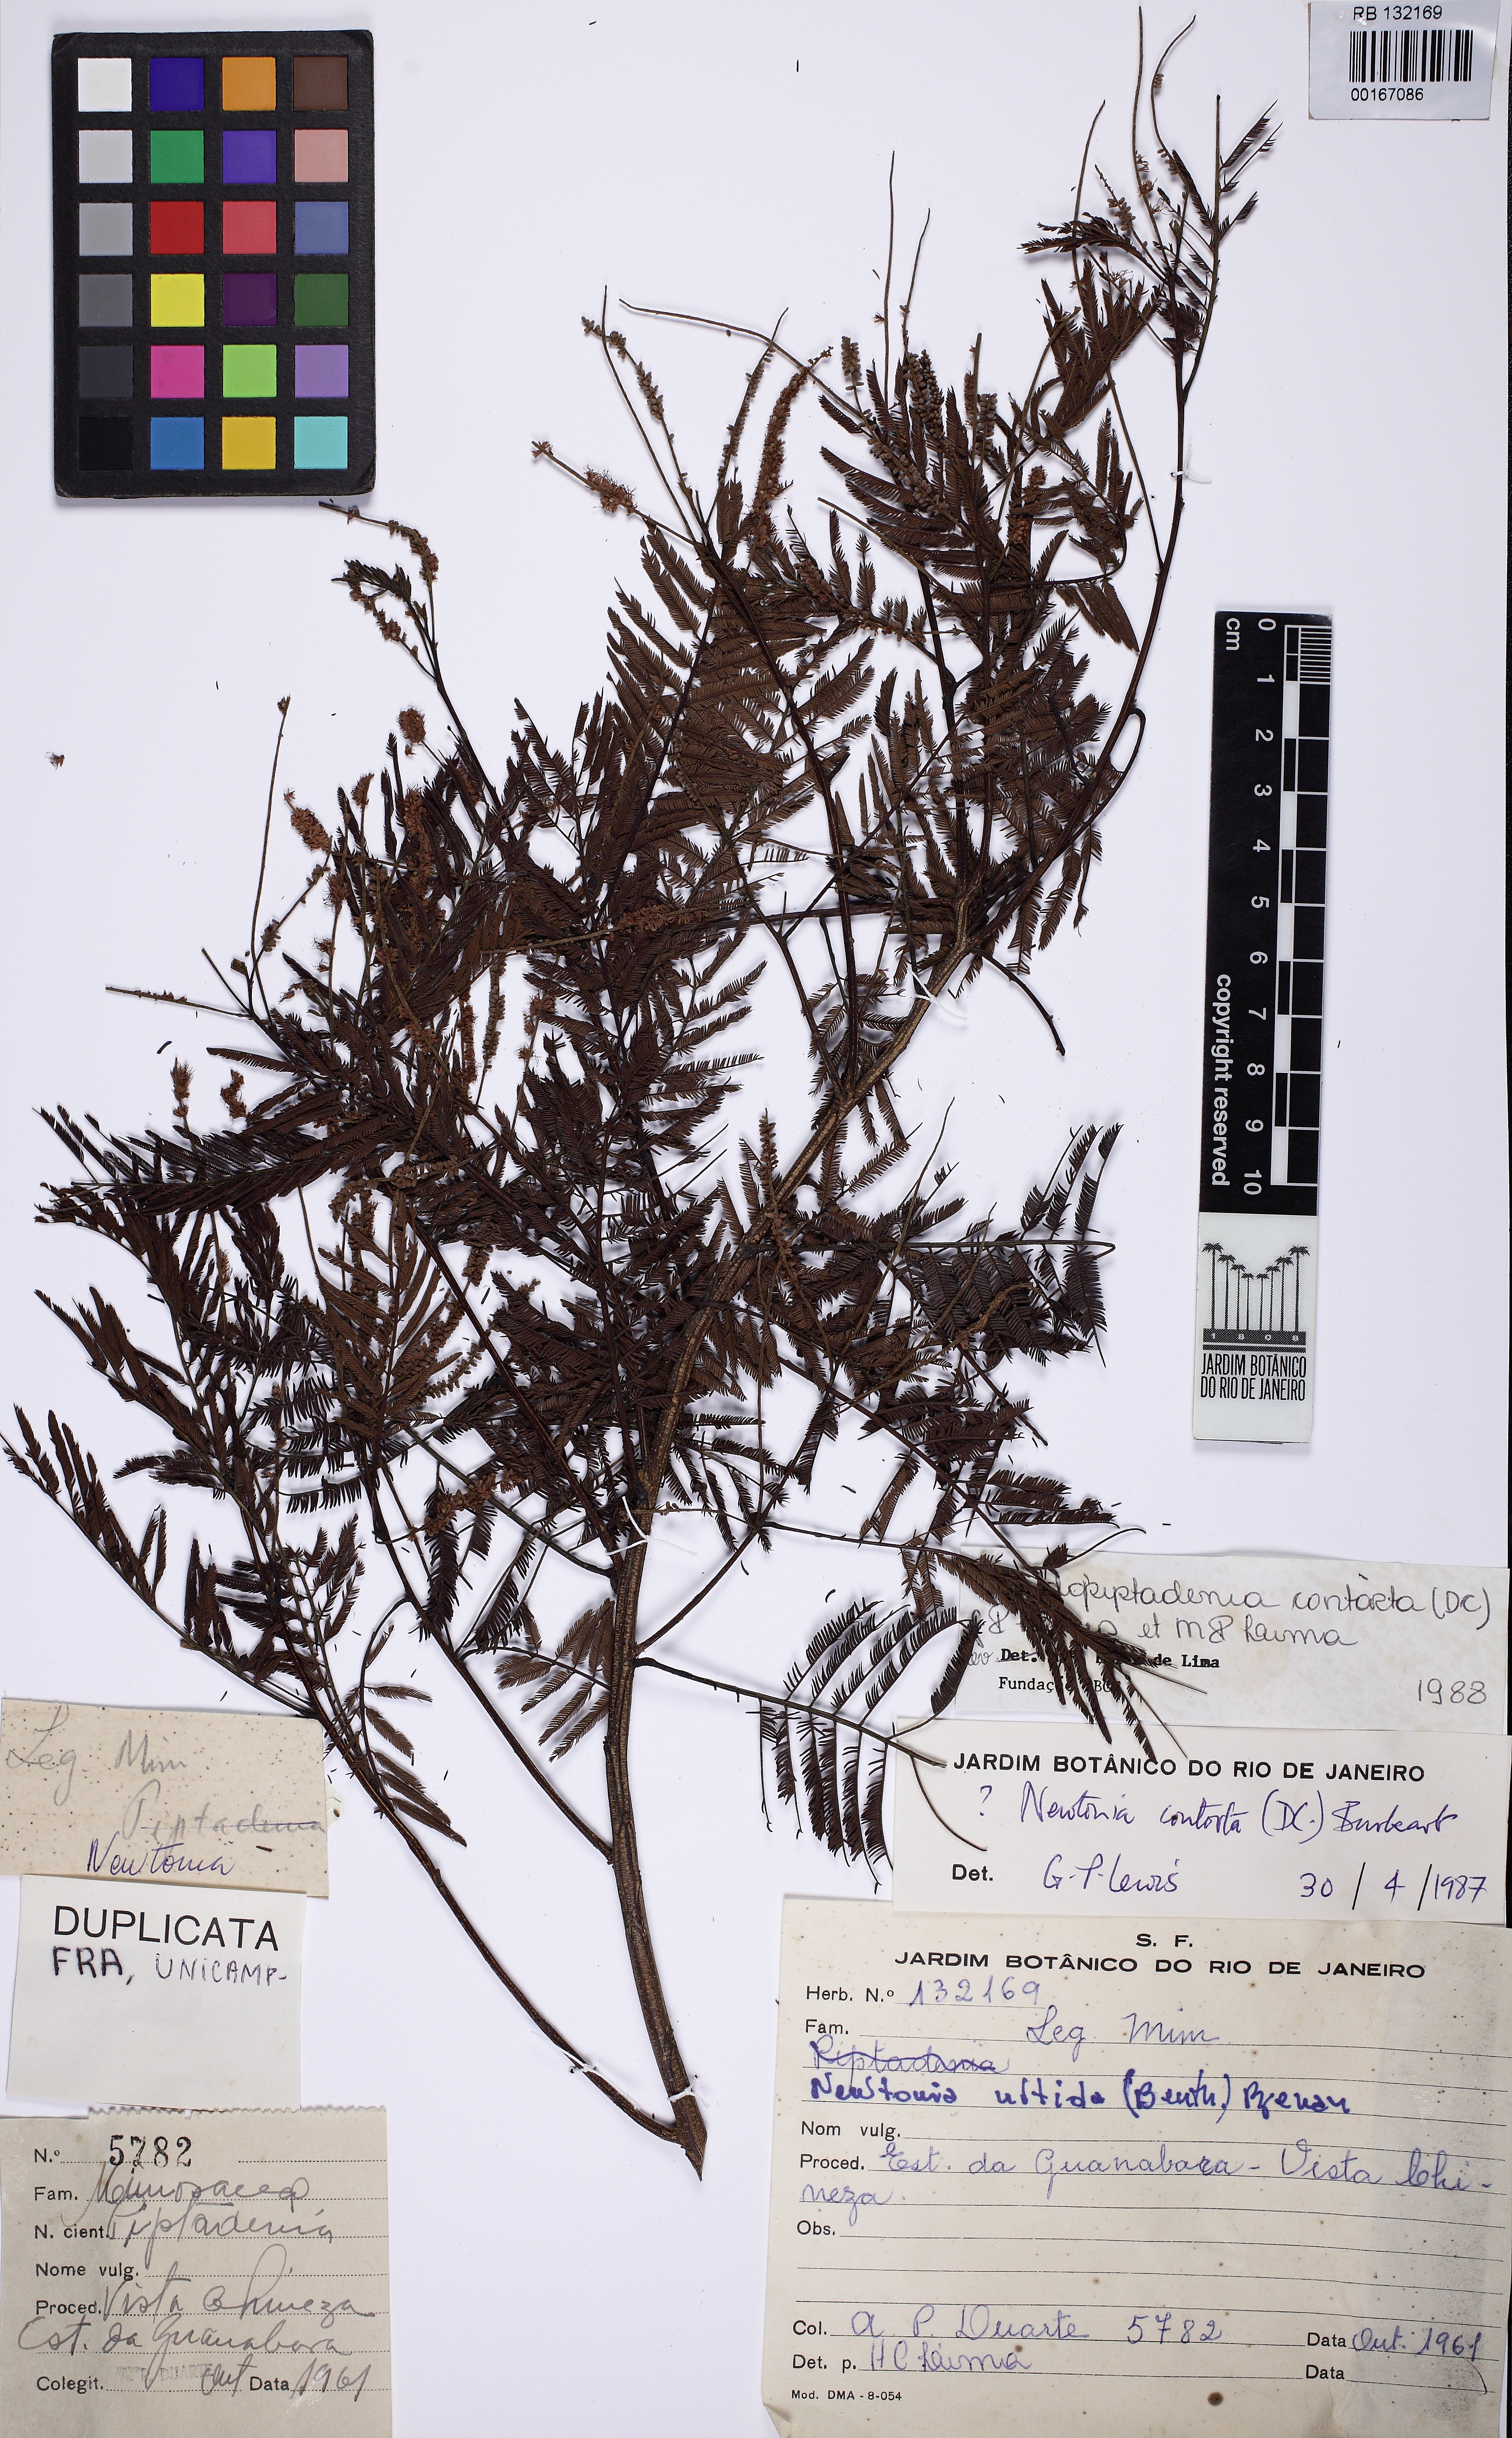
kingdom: Plantae
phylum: Tracheophyta
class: Magnoliopsida
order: Fabales
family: Fabaceae
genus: Pseudopiptadenia
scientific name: Pseudopiptadenia contorta
